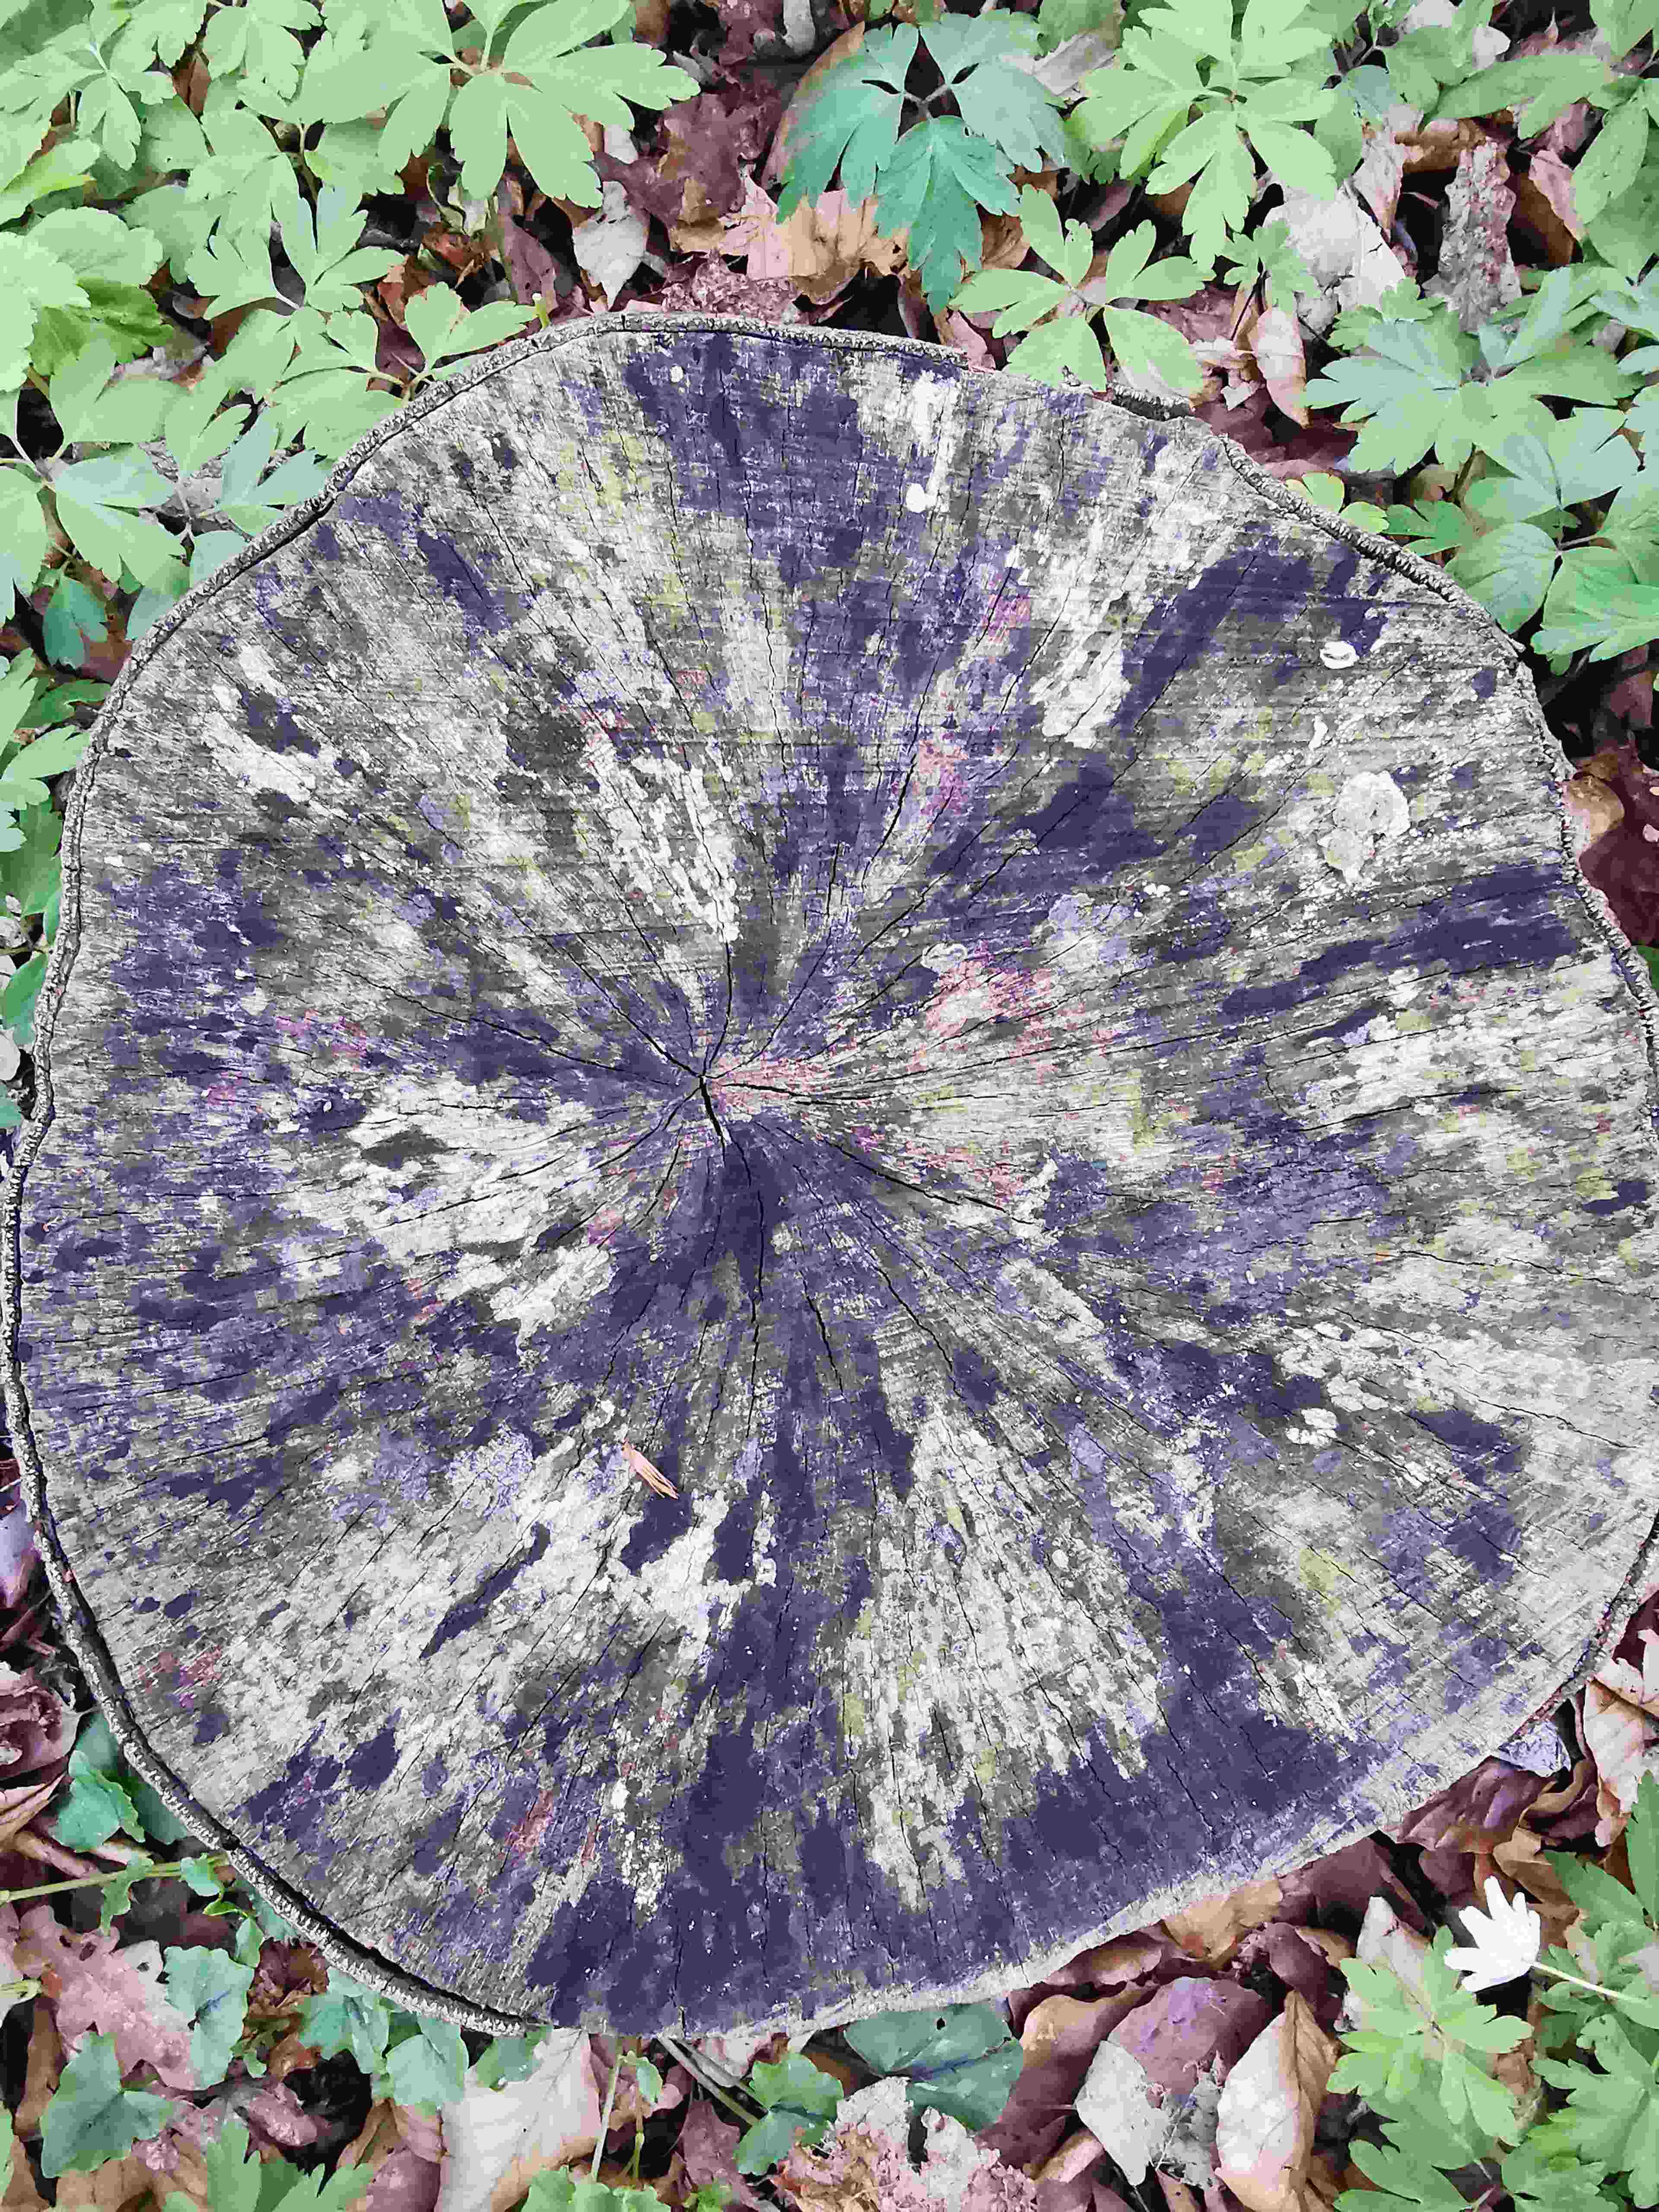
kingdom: Fungi
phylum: Ascomycota
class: Leotiomycetes
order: Helotiales
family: Helotiaceae
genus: Bispora
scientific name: Bispora pallescens
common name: måtte-snitskive
